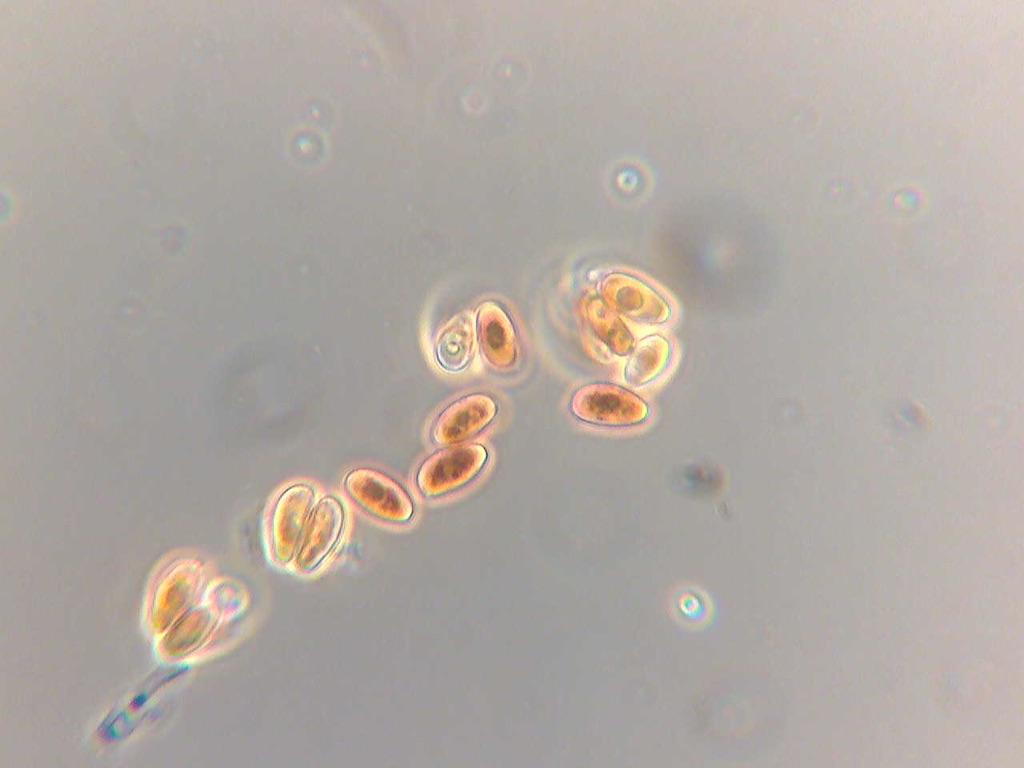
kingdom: Fungi
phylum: Basidiomycota
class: Agaricomycetes
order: Agaricales
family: Psathyrellaceae
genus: Psathyrella
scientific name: Psathyrella pseudocasca
